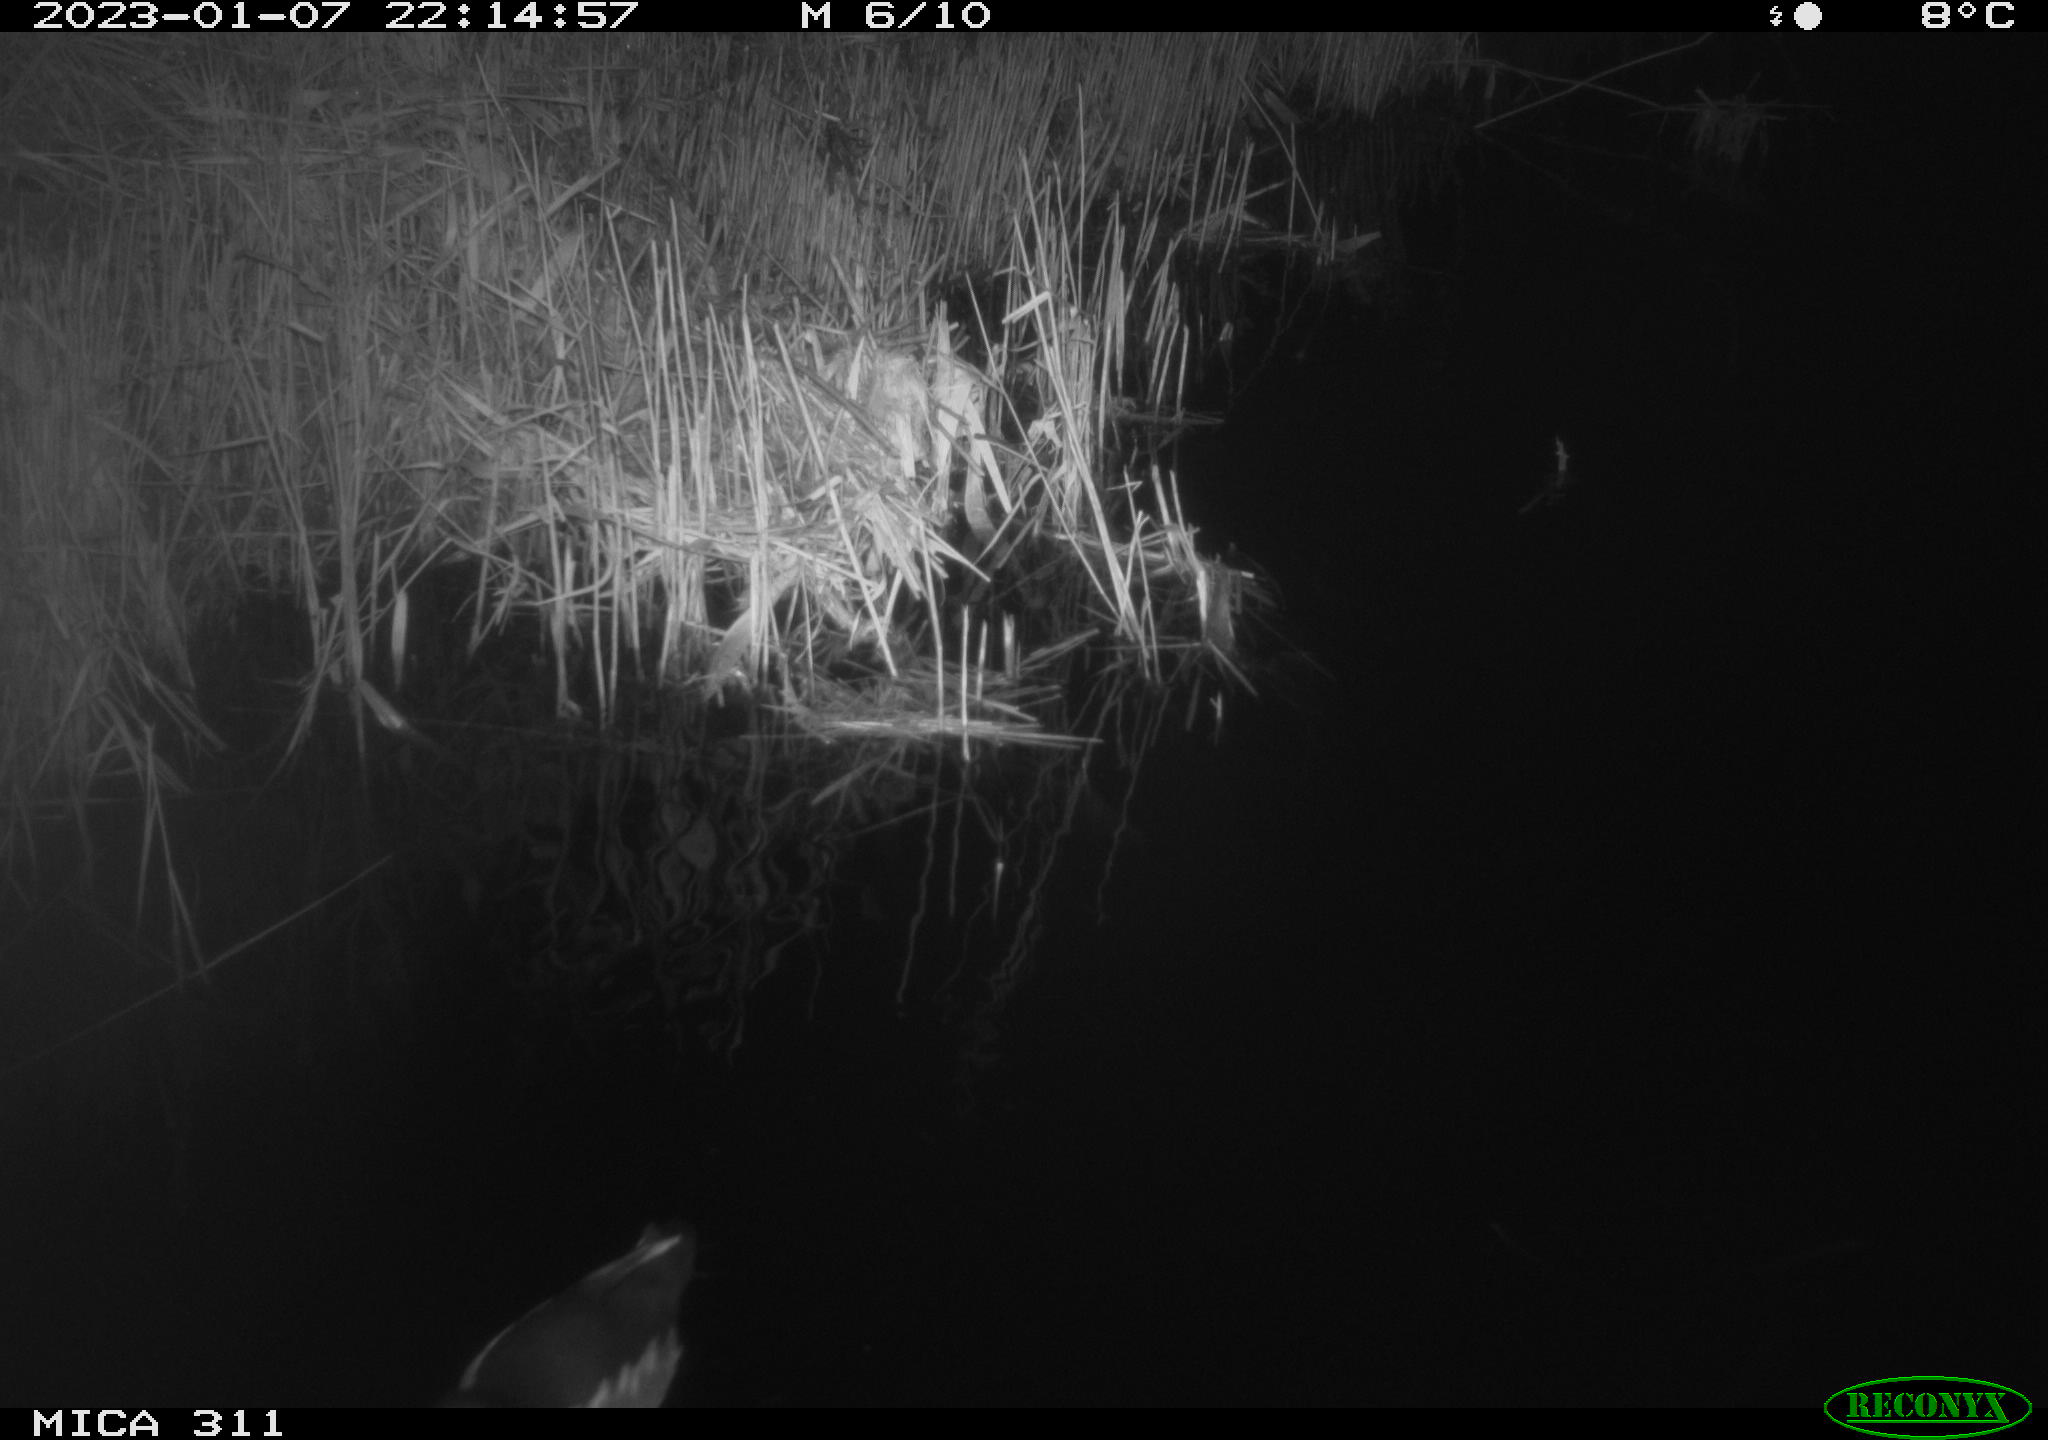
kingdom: Animalia
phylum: Chordata
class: Aves
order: Gruiformes
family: Rallidae
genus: Gallinula
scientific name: Gallinula chloropus
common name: Common moorhen
